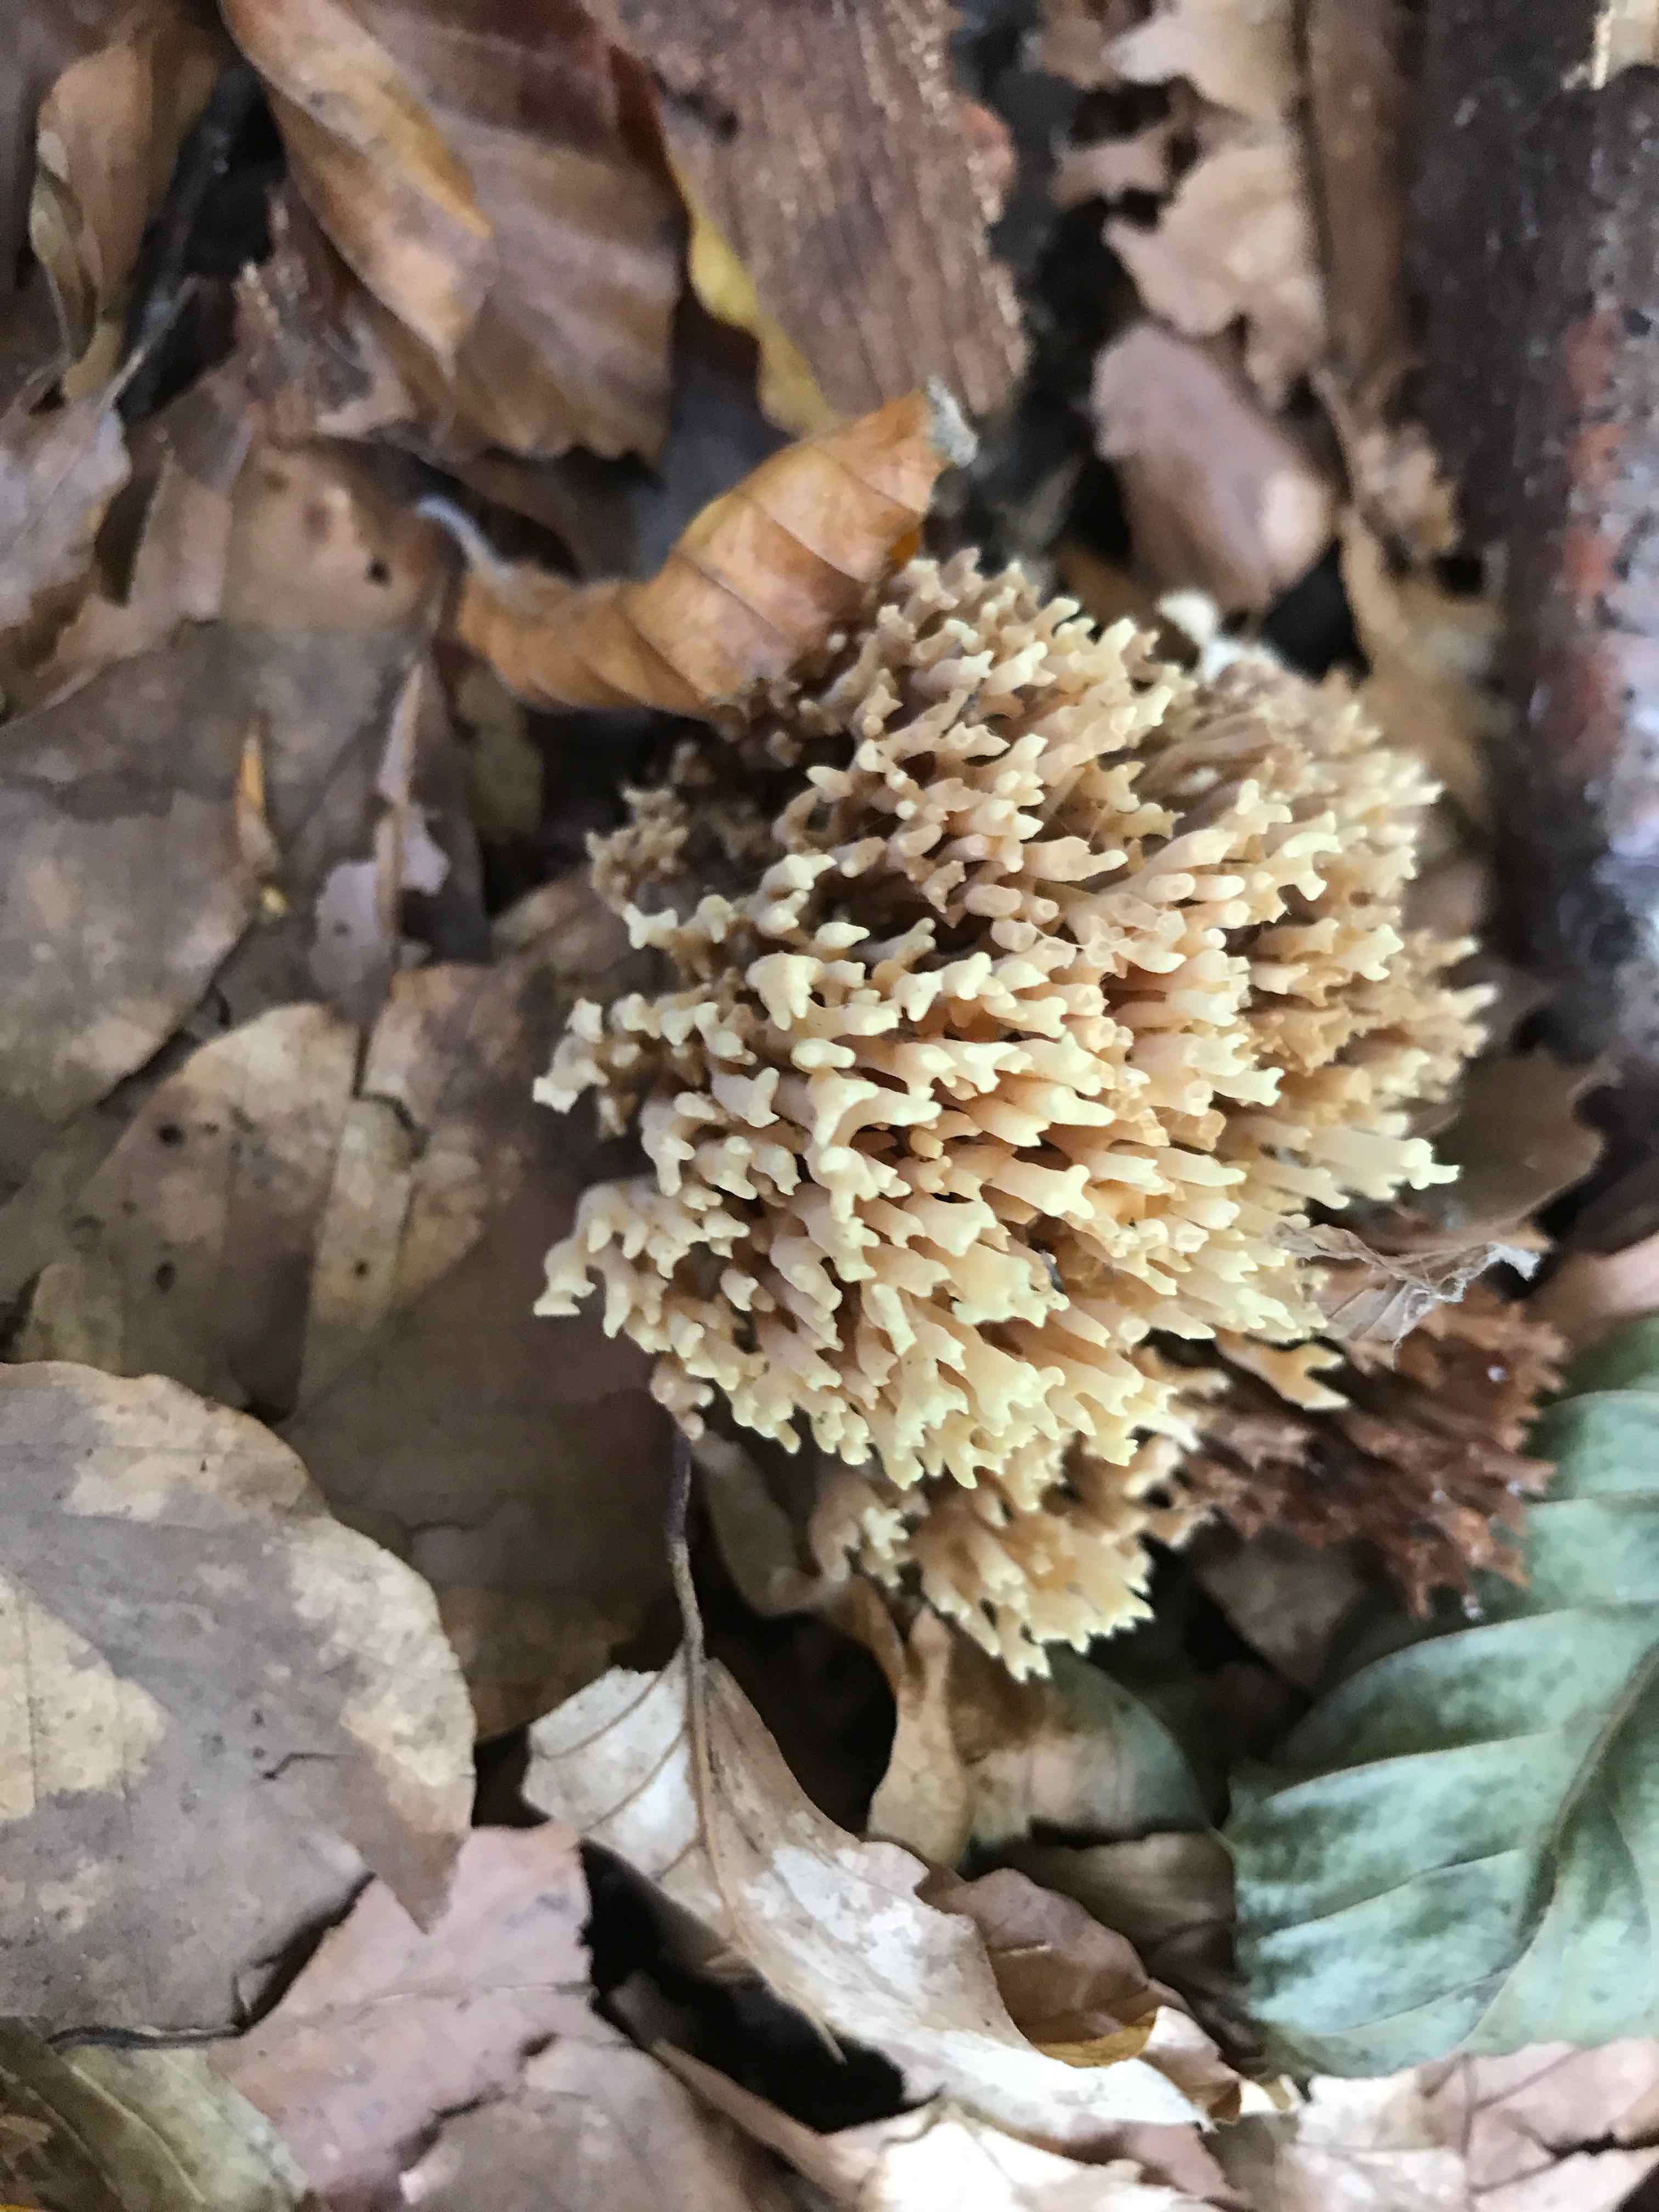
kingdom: Fungi
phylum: Basidiomycota
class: Agaricomycetes
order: Gomphales
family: Gomphaceae
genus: Ramaria
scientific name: Ramaria stricta
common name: rank koralsvamp
